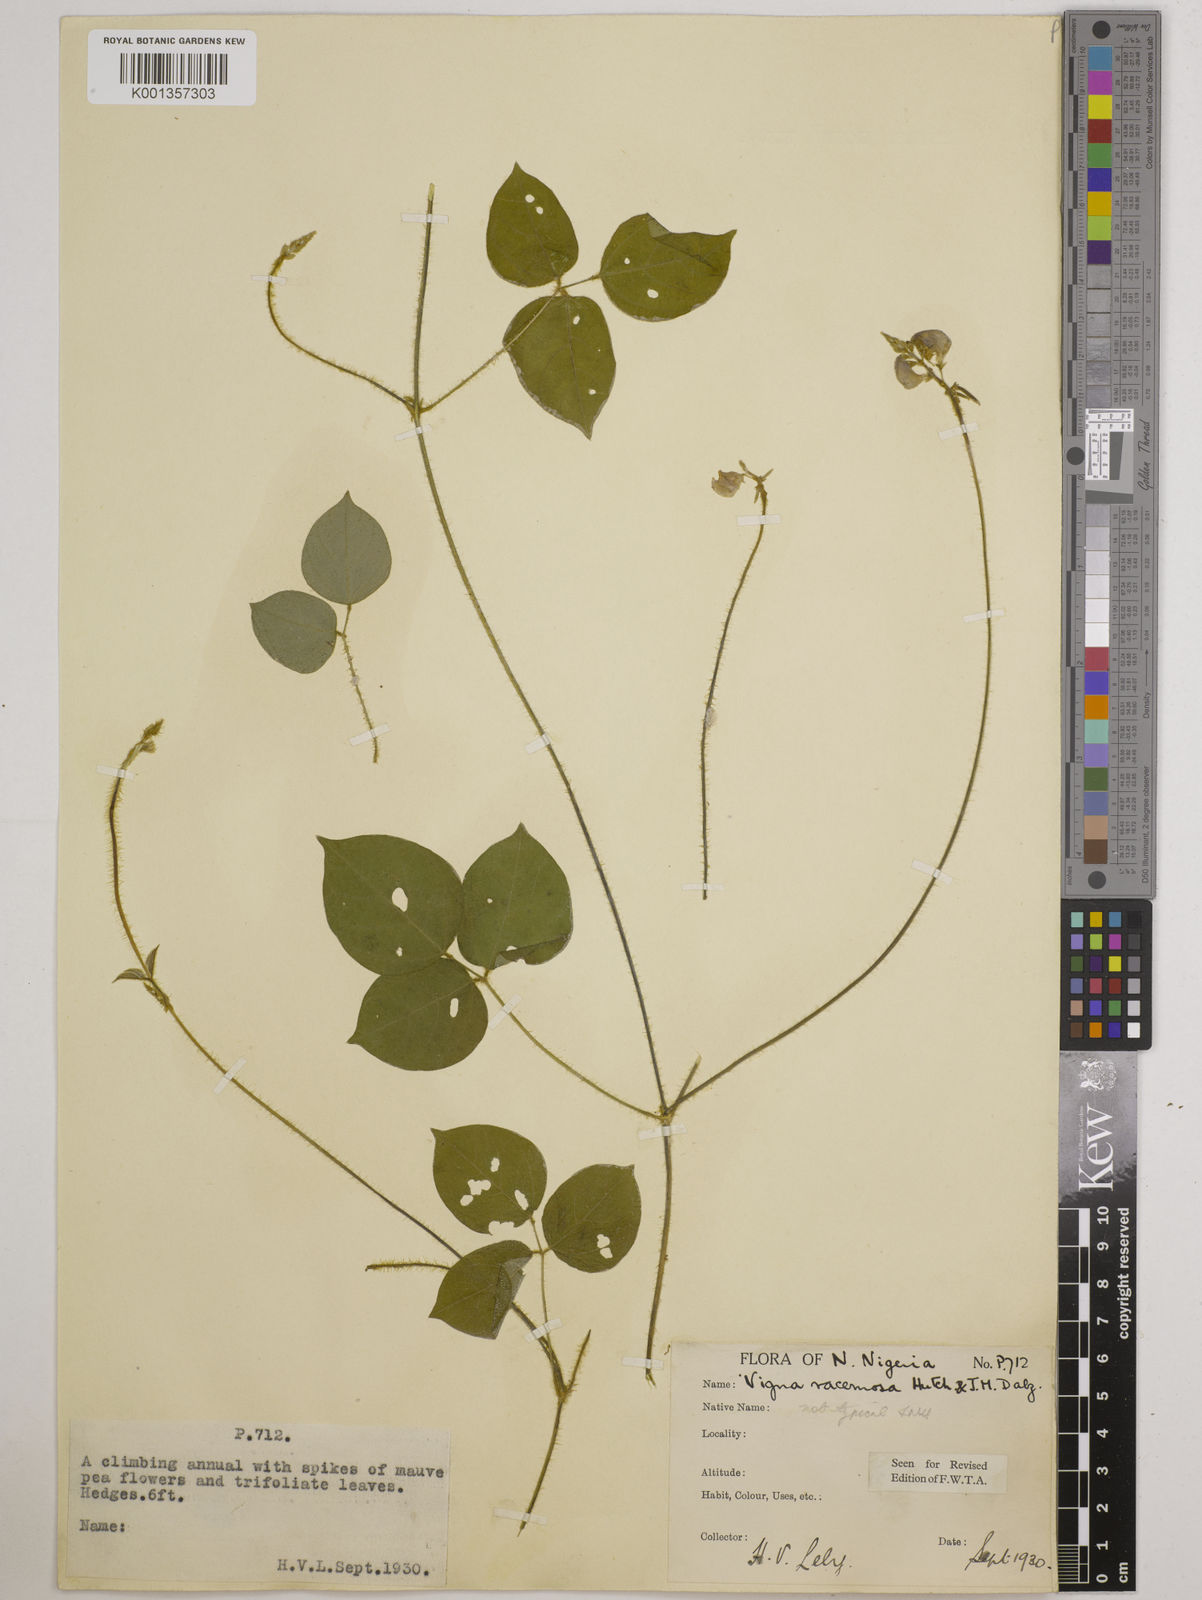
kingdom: Plantae
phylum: Tracheophyta
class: Magnoliopsida
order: Fabales
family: Fabaceae
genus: Vigna
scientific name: Vigna racemosa
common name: Beans not eaten
